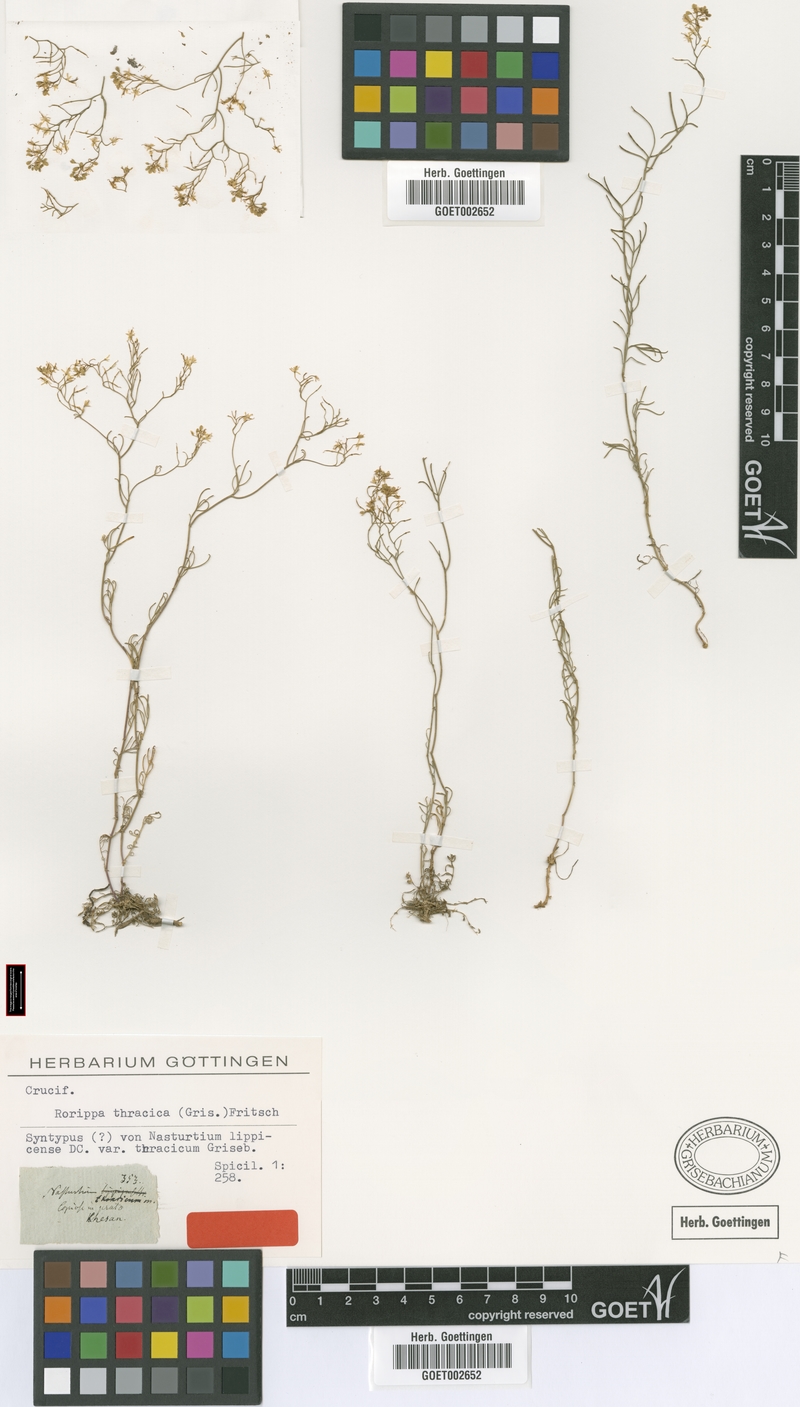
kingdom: Plantae
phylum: Tracheophyta
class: Magnoliopsida
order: Brassicales
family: Brassicaceae
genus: Rorippa
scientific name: Rorippa lippizensis
